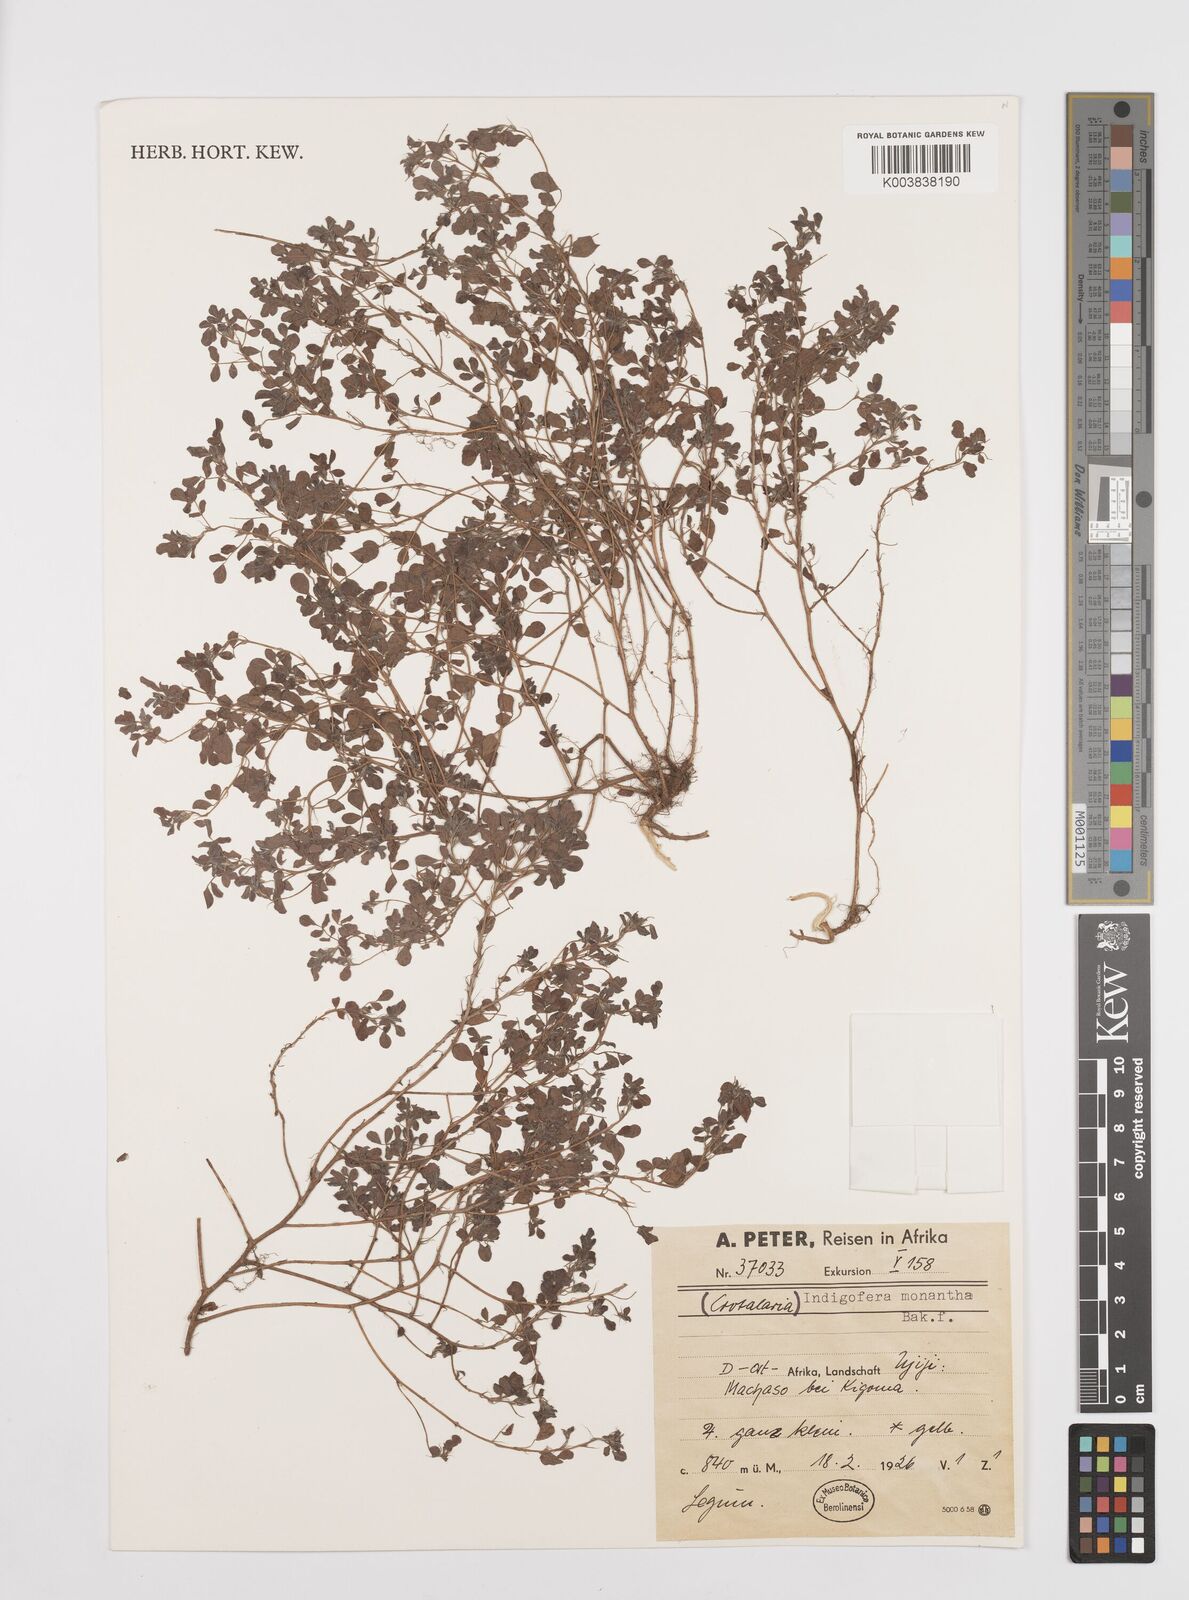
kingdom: Plantae
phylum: Tracheophyta
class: Magnoliopsida
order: Fabales
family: Fabaceae
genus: Indigofera
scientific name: Indigofera monantha
